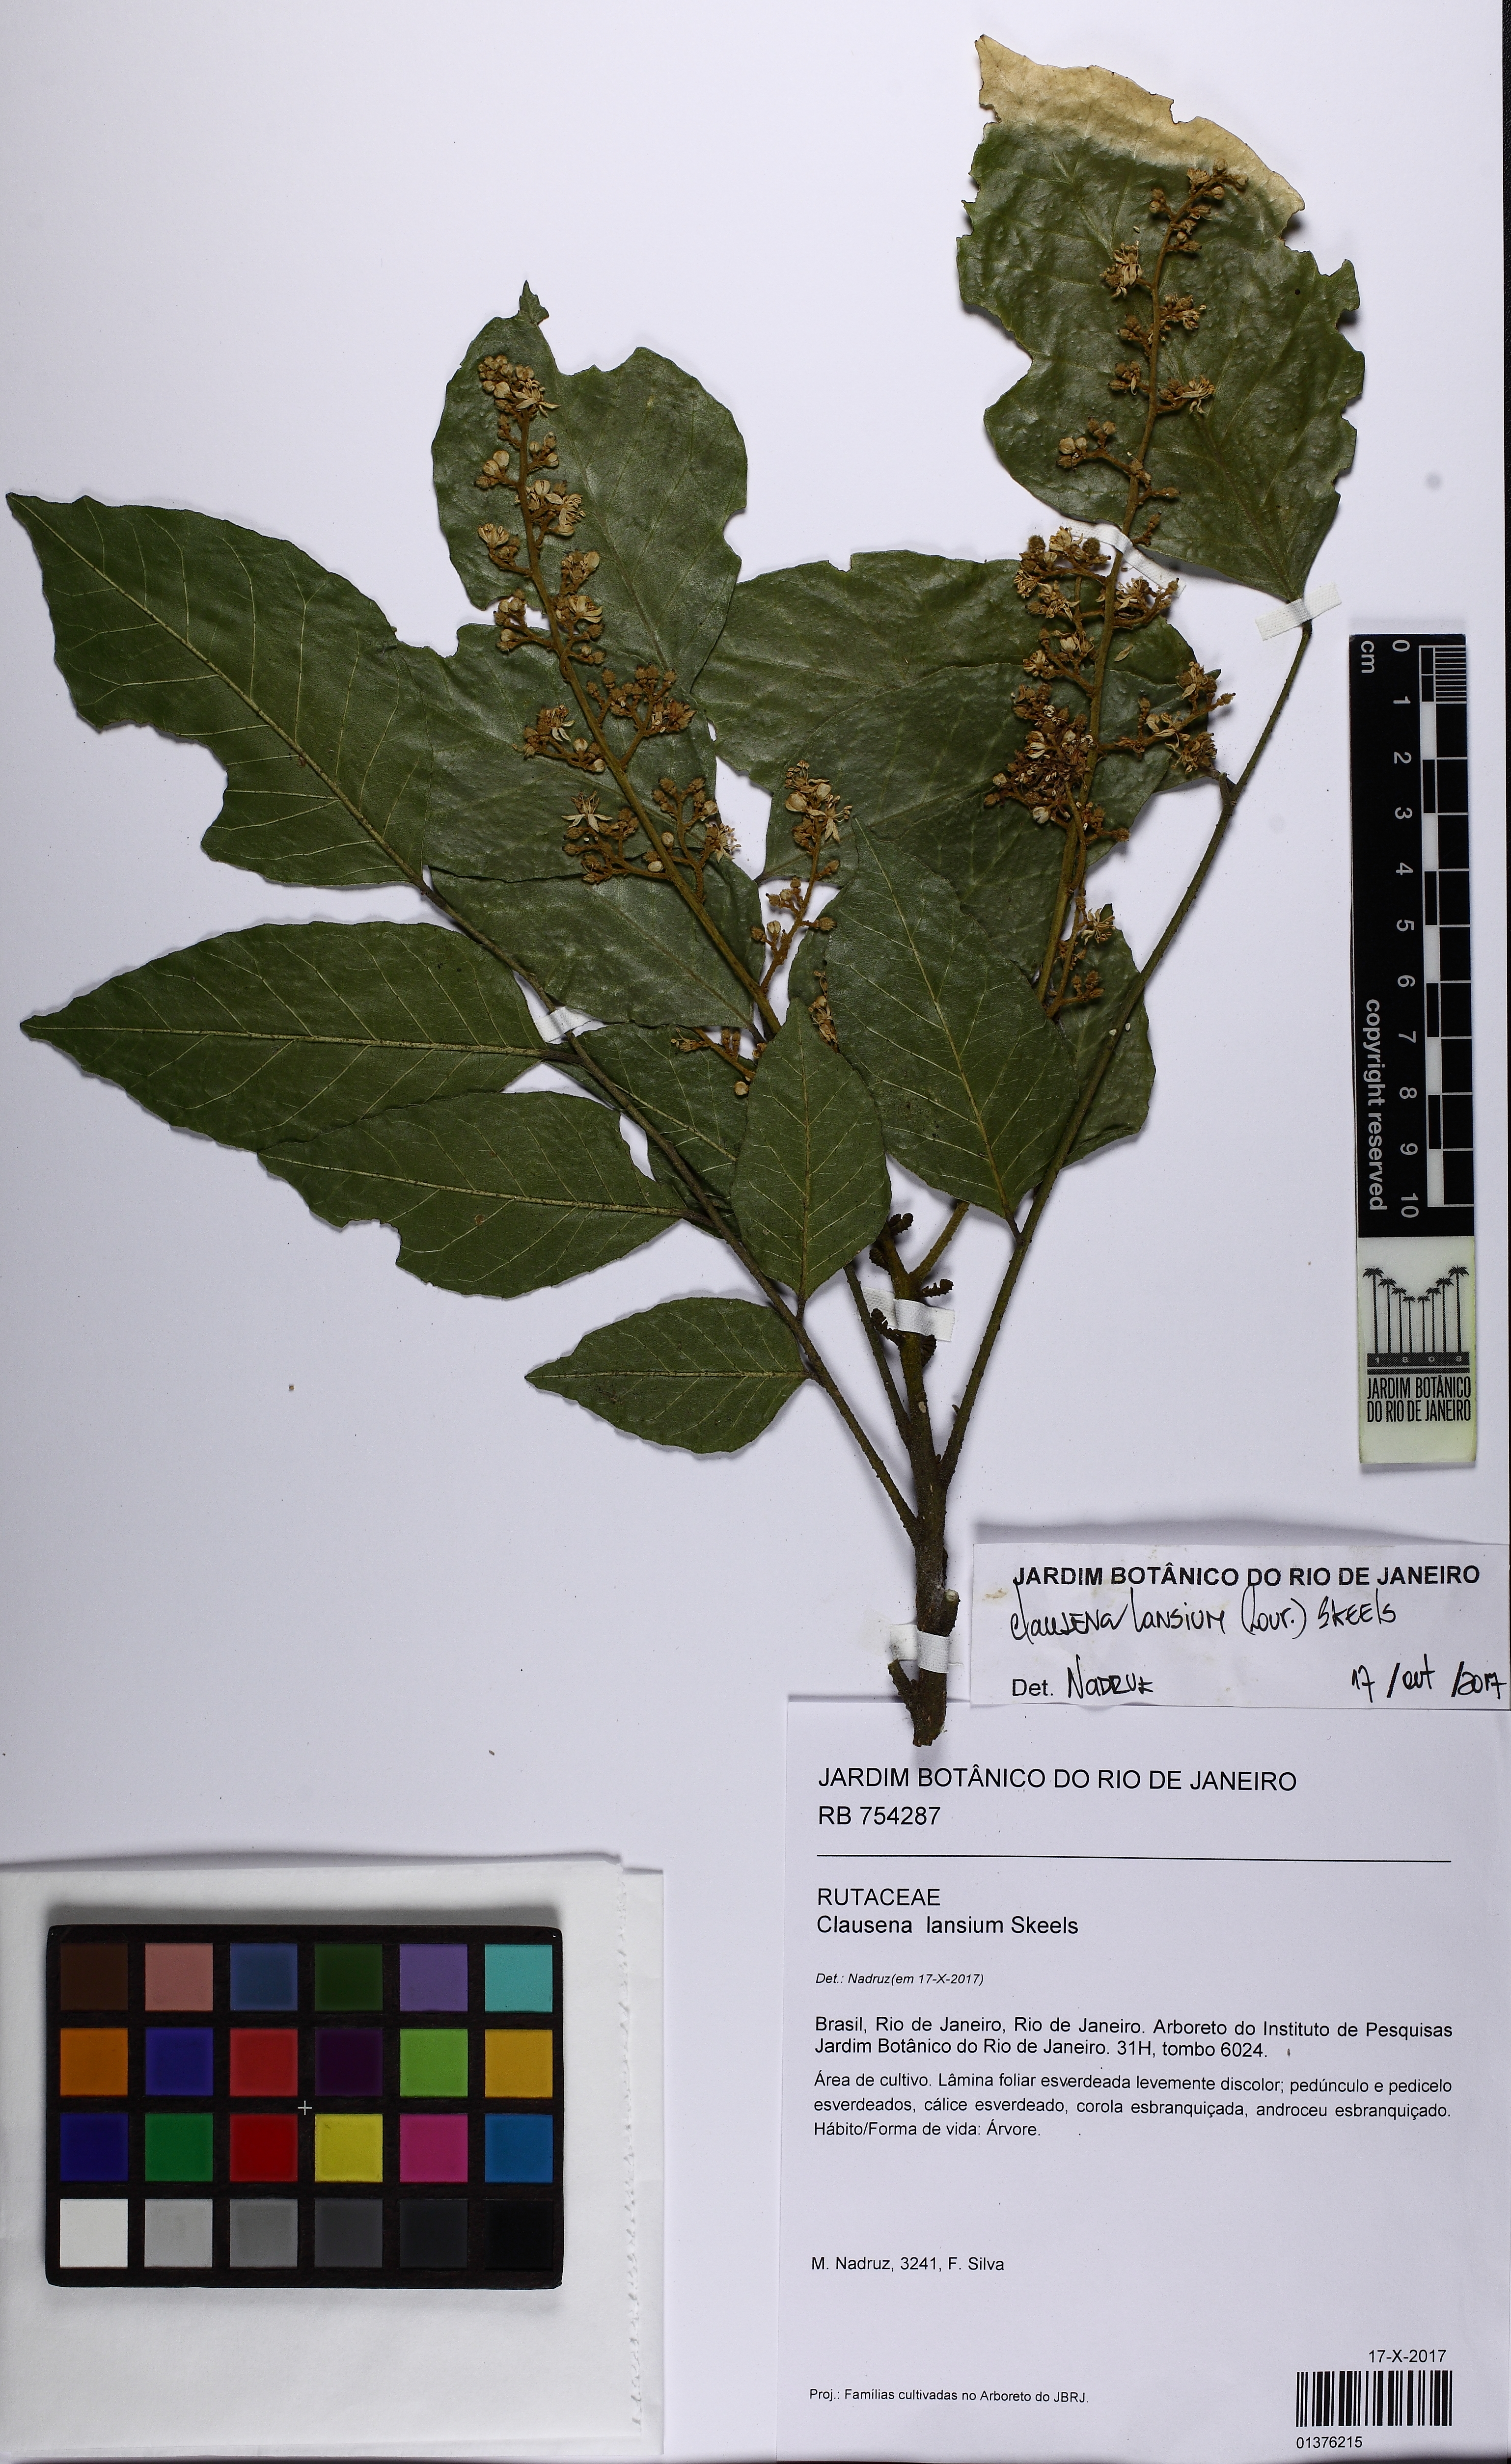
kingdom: Plantae
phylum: Tracheophyta
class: Magnoliopsida
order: Sapindales
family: Rutaceae
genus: Clausena
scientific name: Clausena lansium
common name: Wampi
